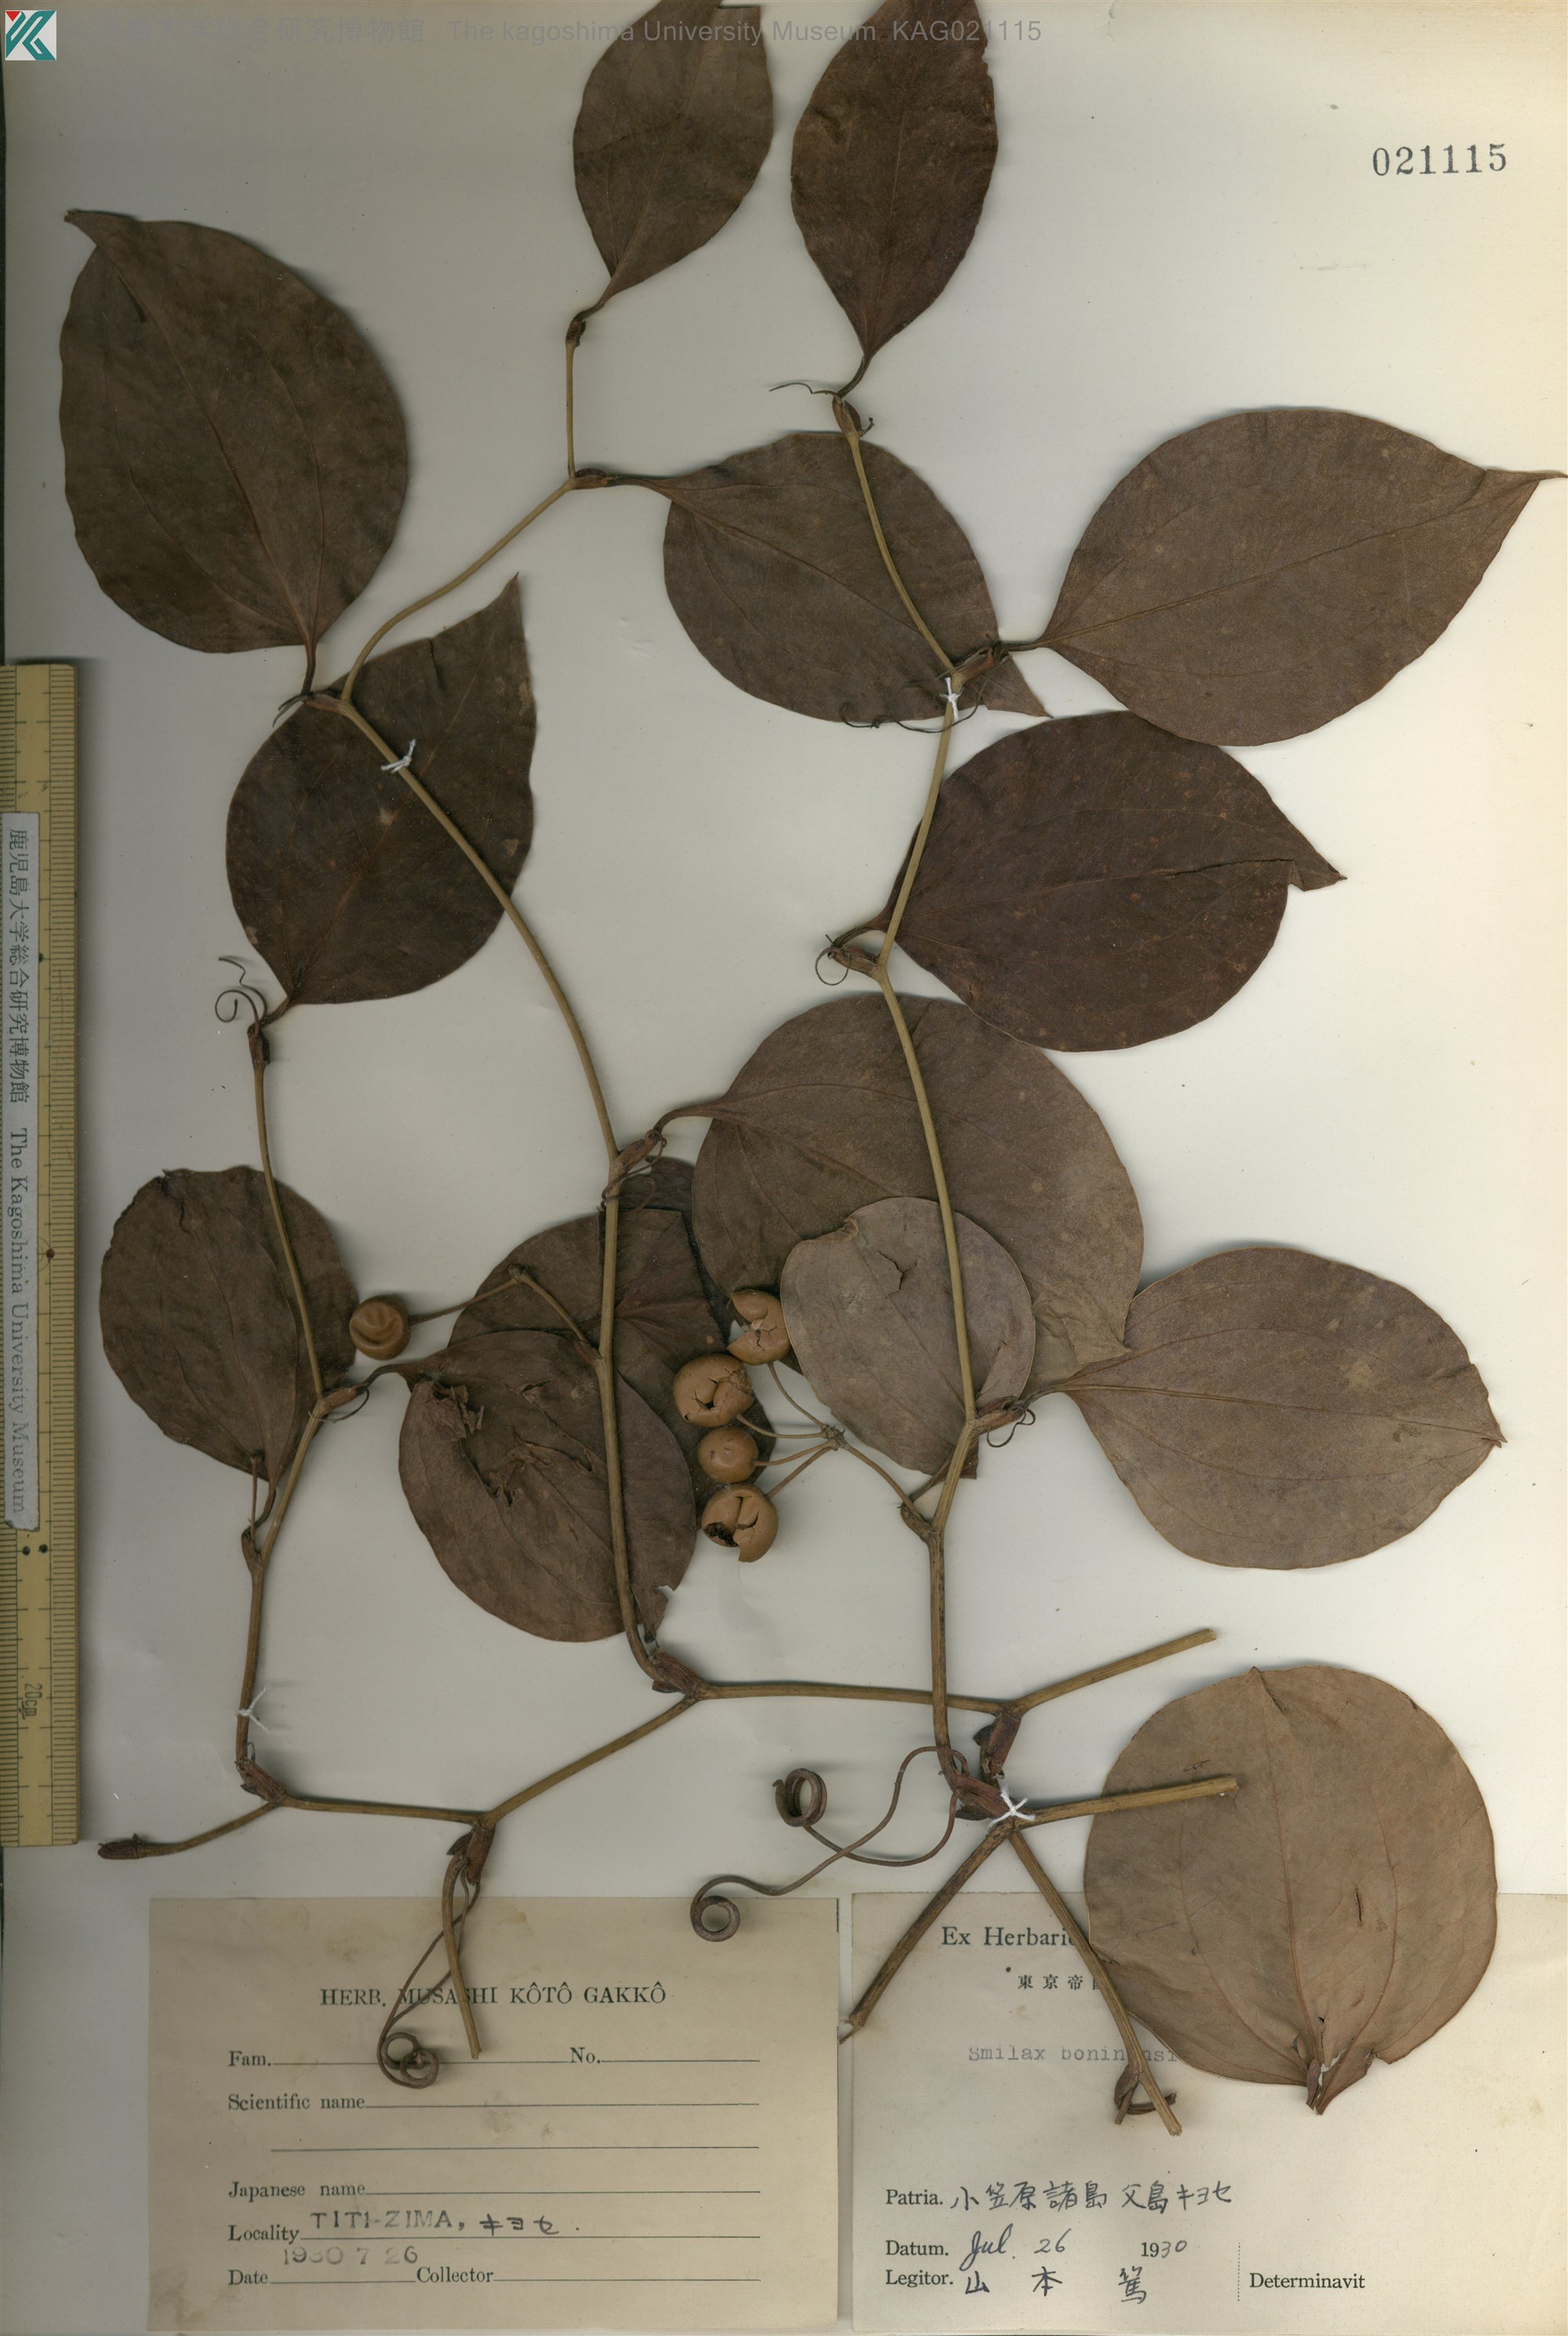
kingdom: Plantae
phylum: Tracheophyta
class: Liliopsida
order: Liliales
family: Smilacaceae
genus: Smilax
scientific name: Smilax china
